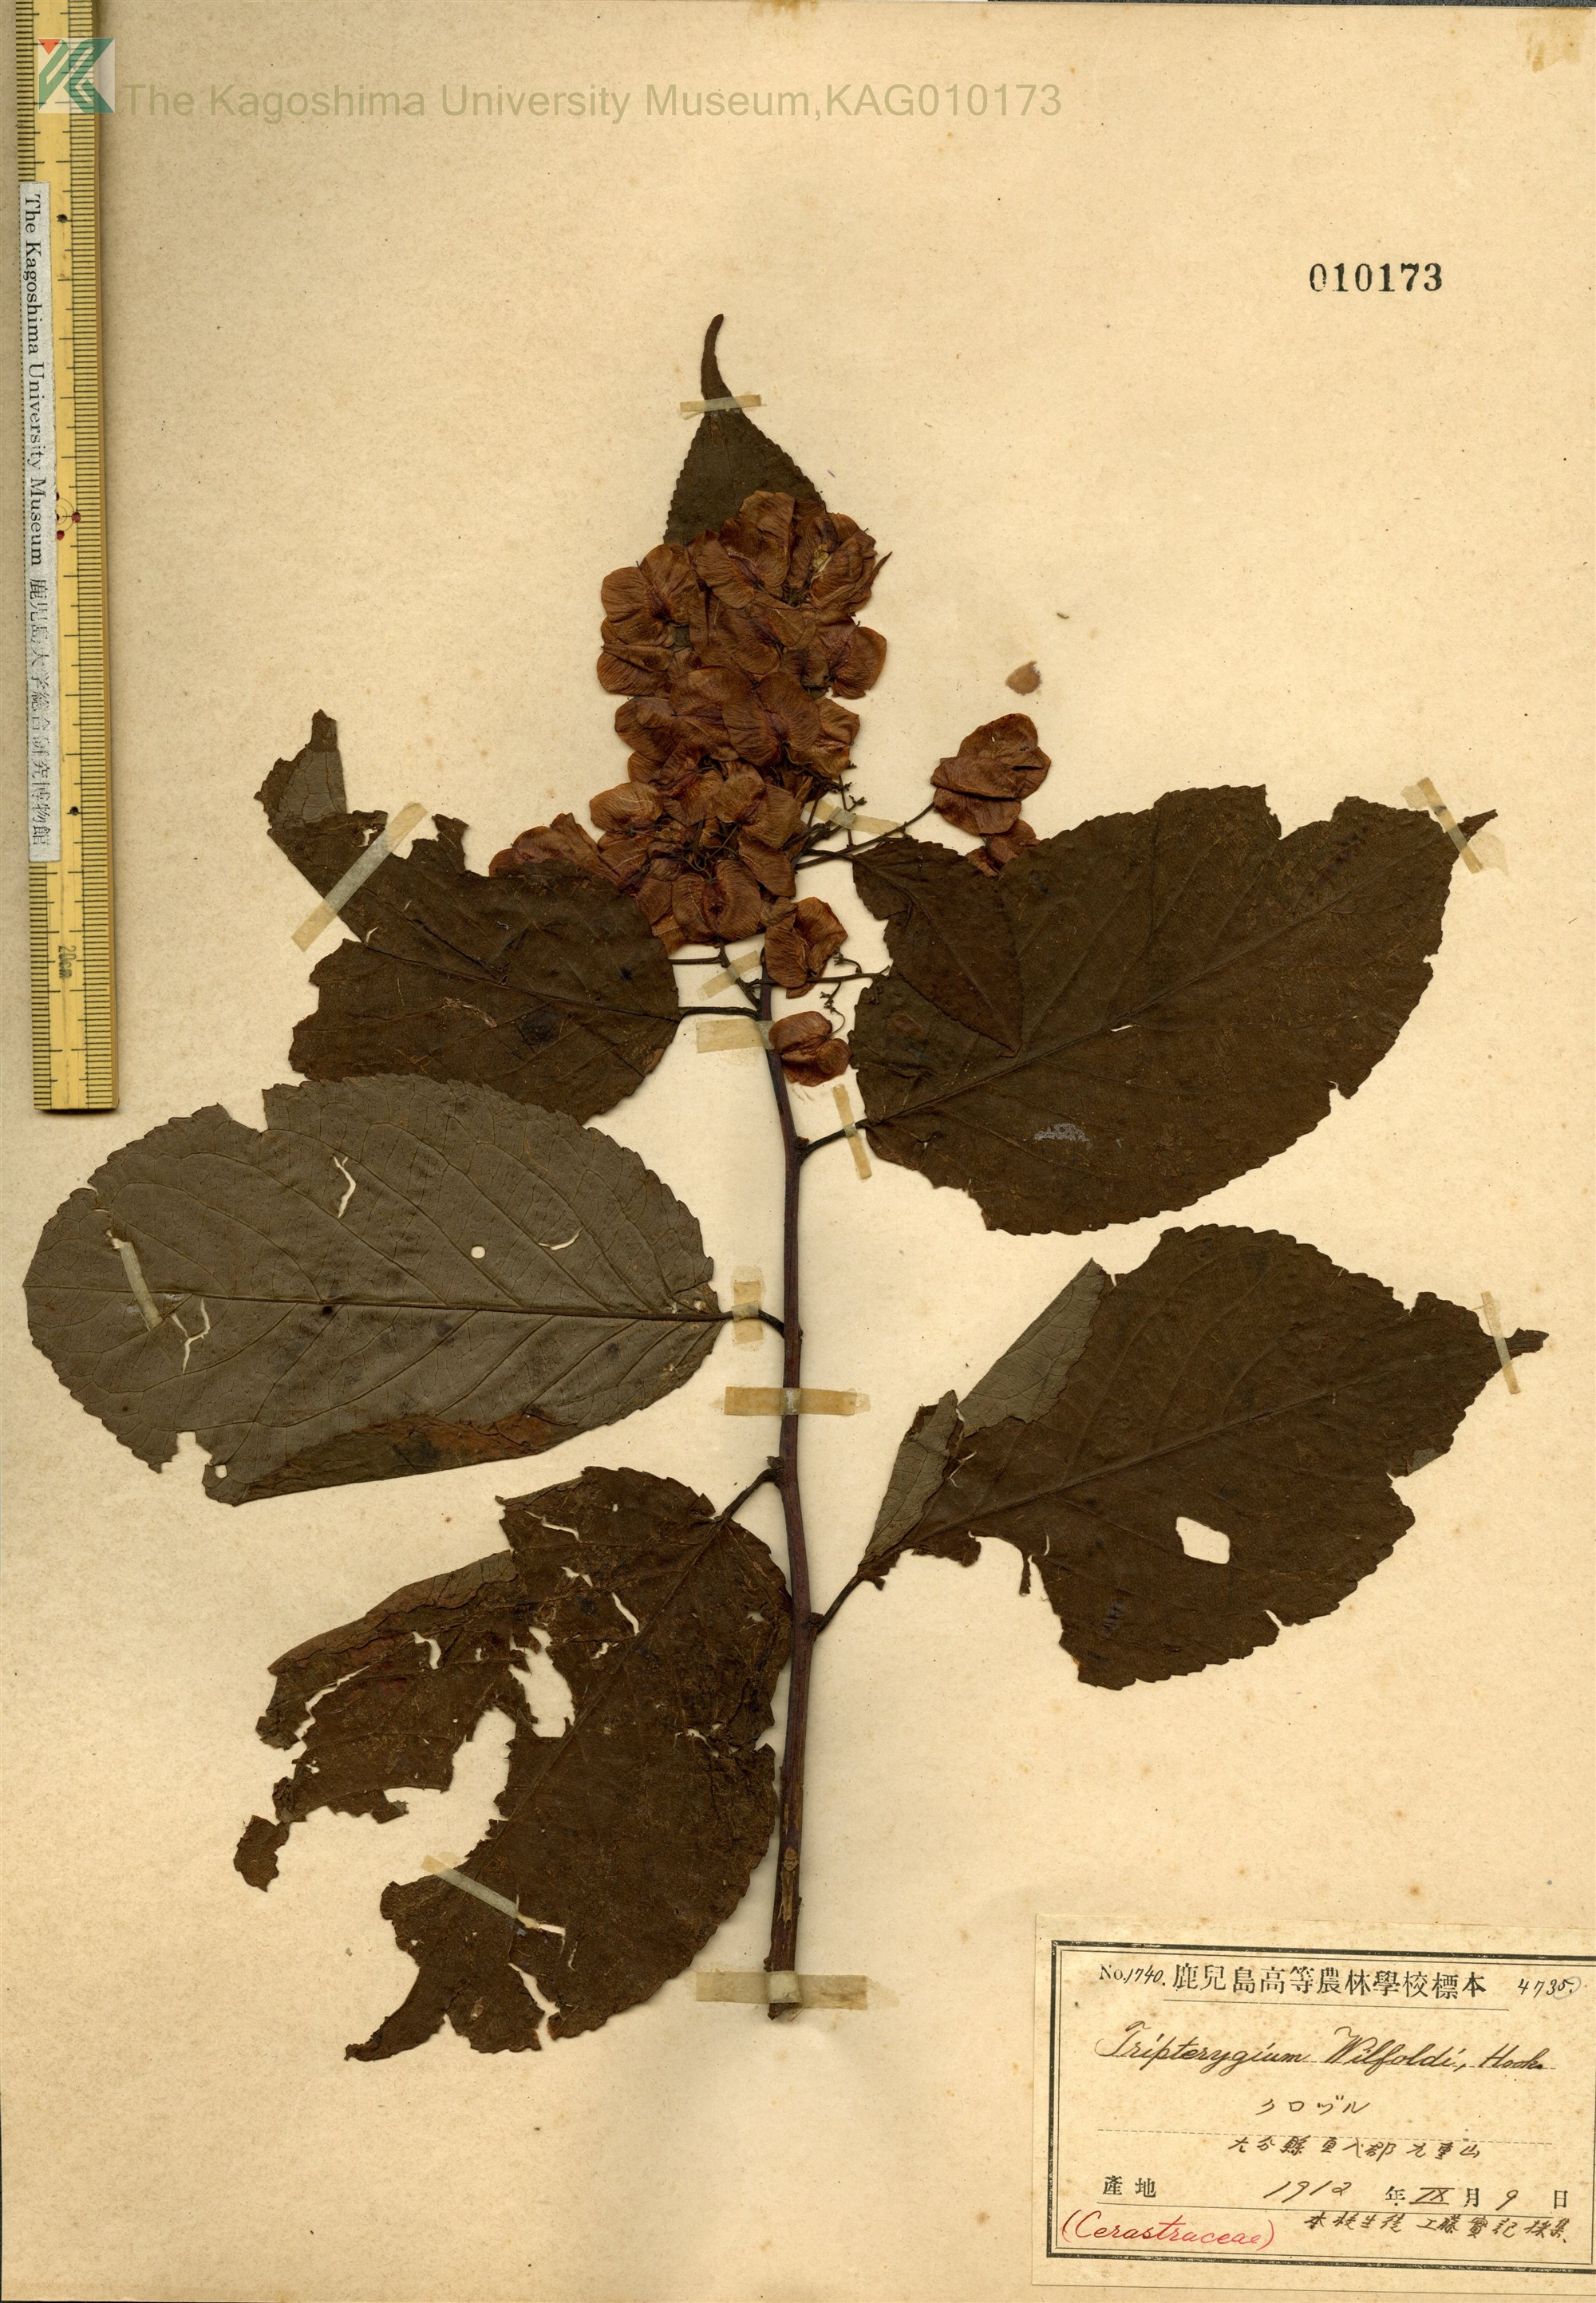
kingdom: Plantae
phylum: Tracheophyta
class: Magnoliopsida
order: Celastrales
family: Celastraceae
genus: Tripterygium
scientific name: Tripterygium wilfordii
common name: クロヅル
